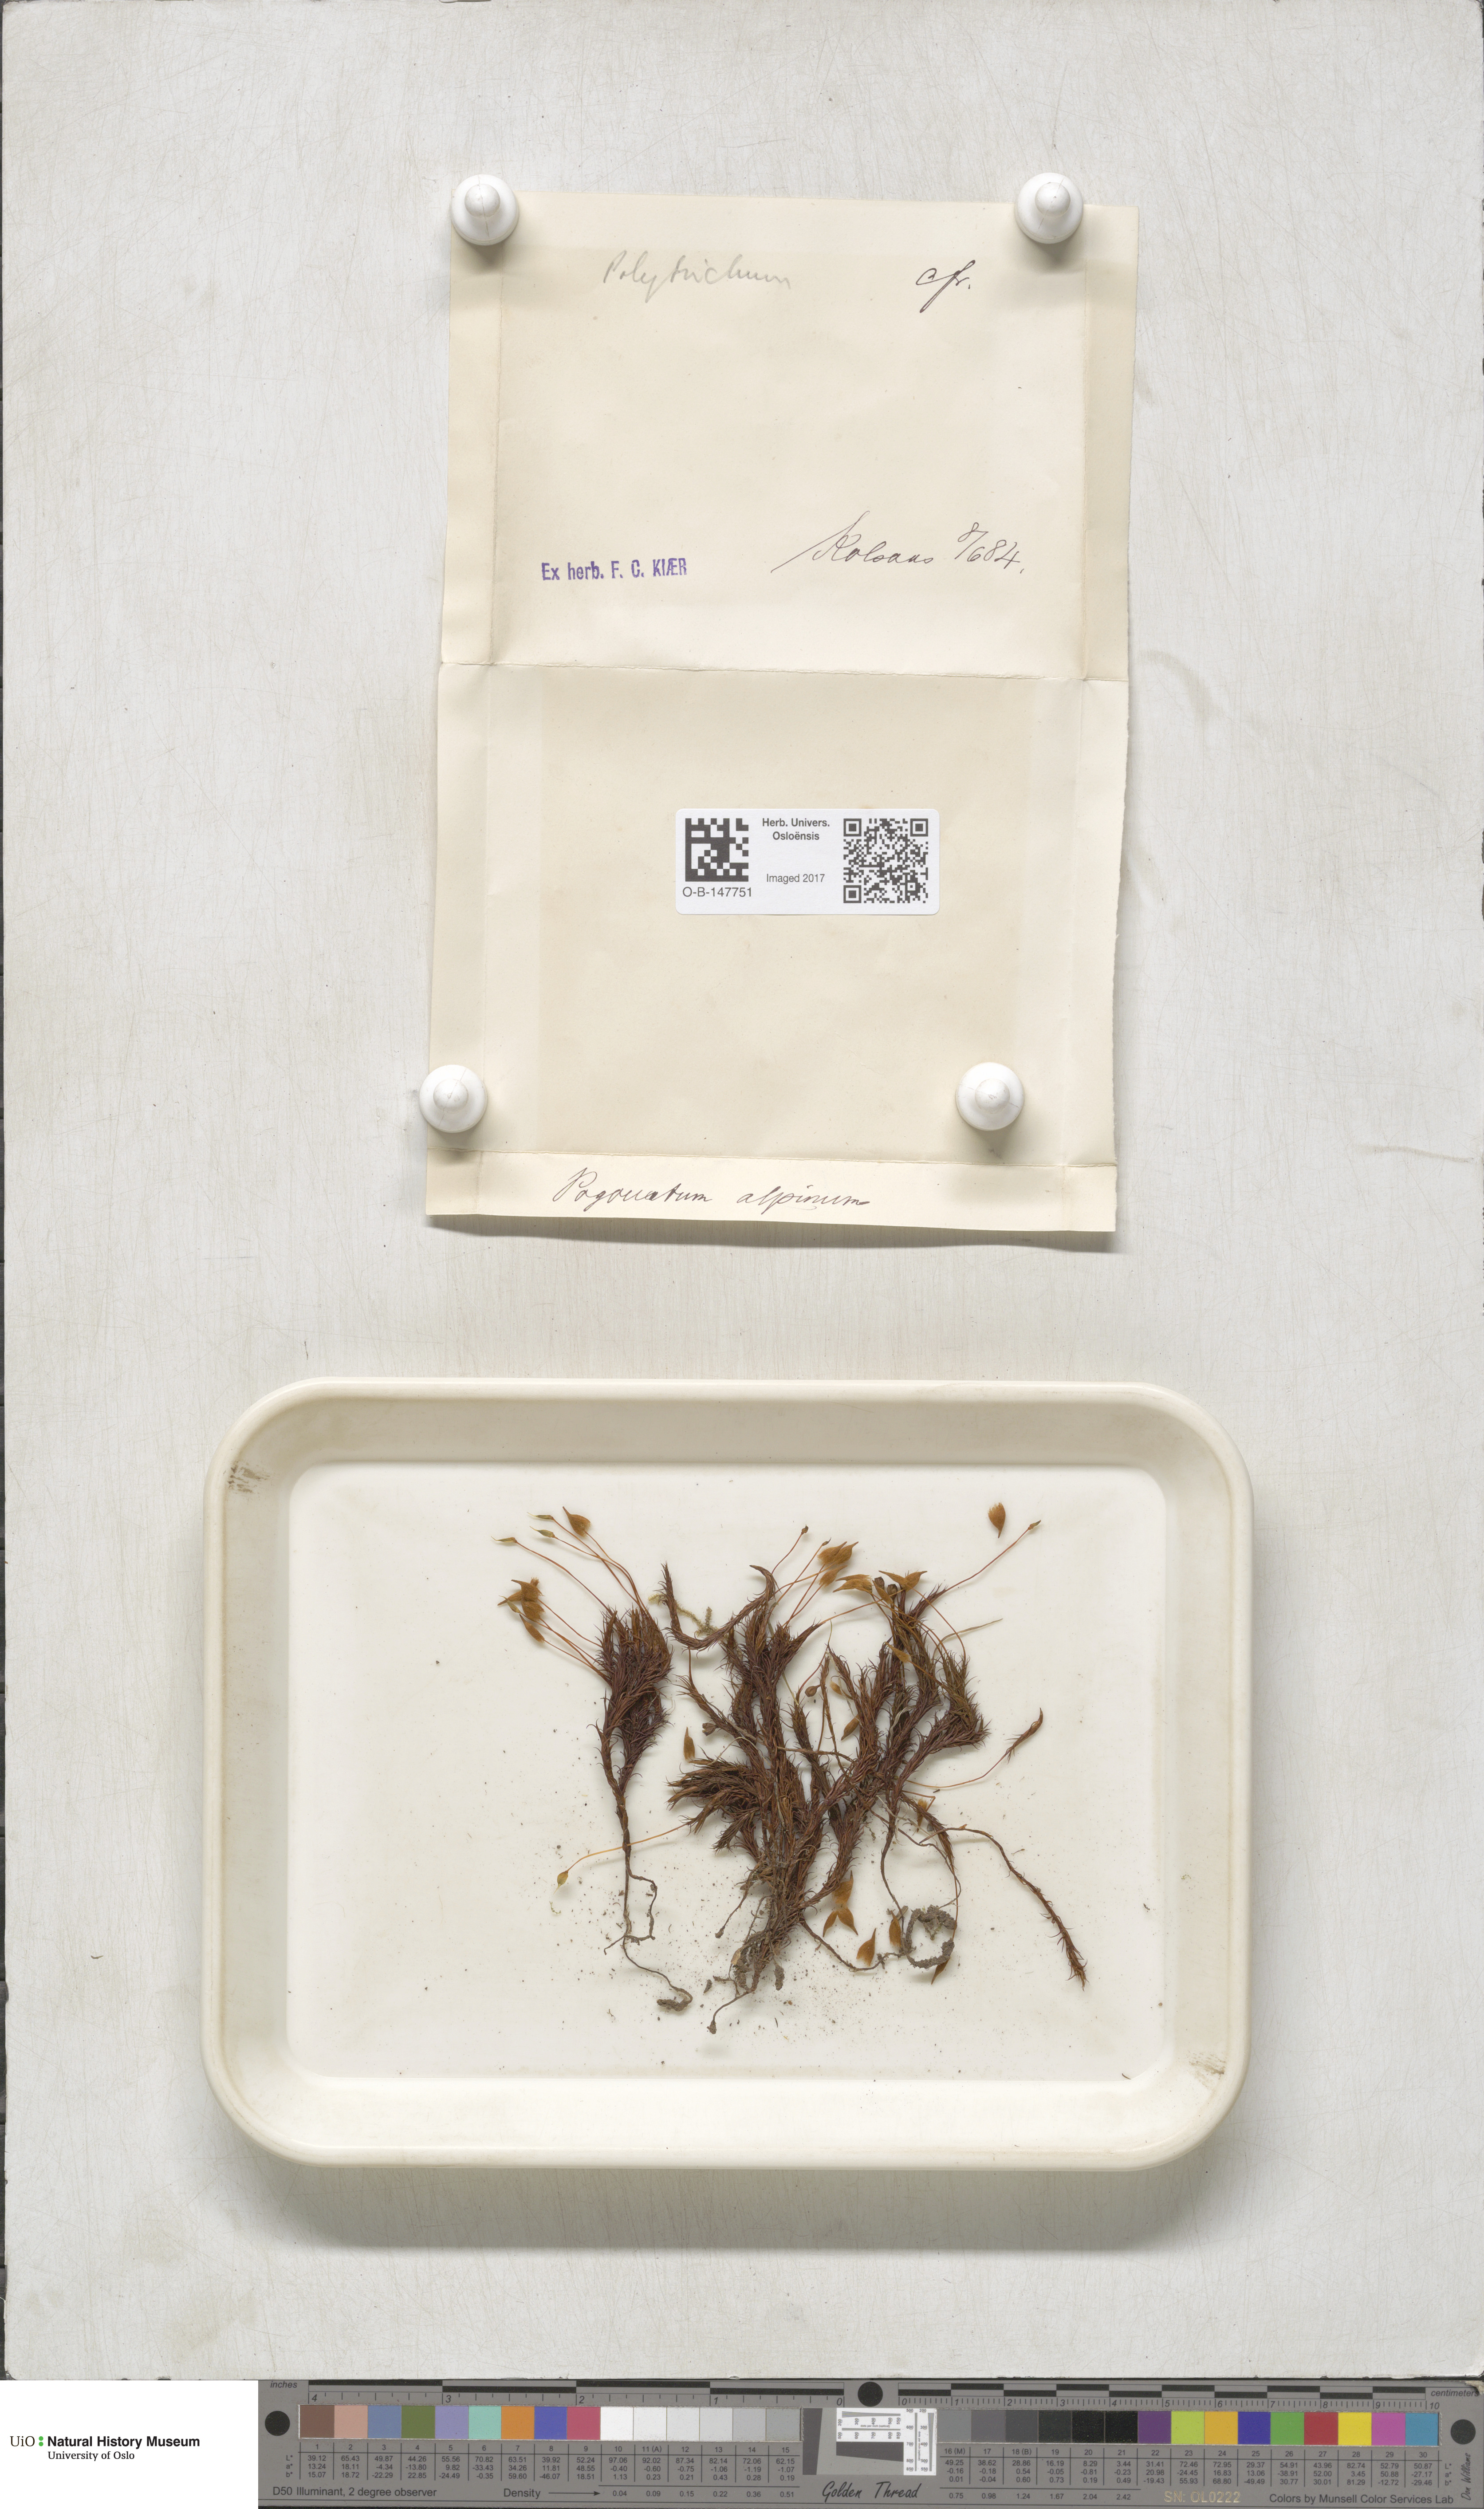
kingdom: Plantae
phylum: Bryophyta
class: Polytrichopsida
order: Polytrichales
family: Polytrichaceae
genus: Polytrichastrum
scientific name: Polytrichastrum alpinum
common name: Alpine haircap
